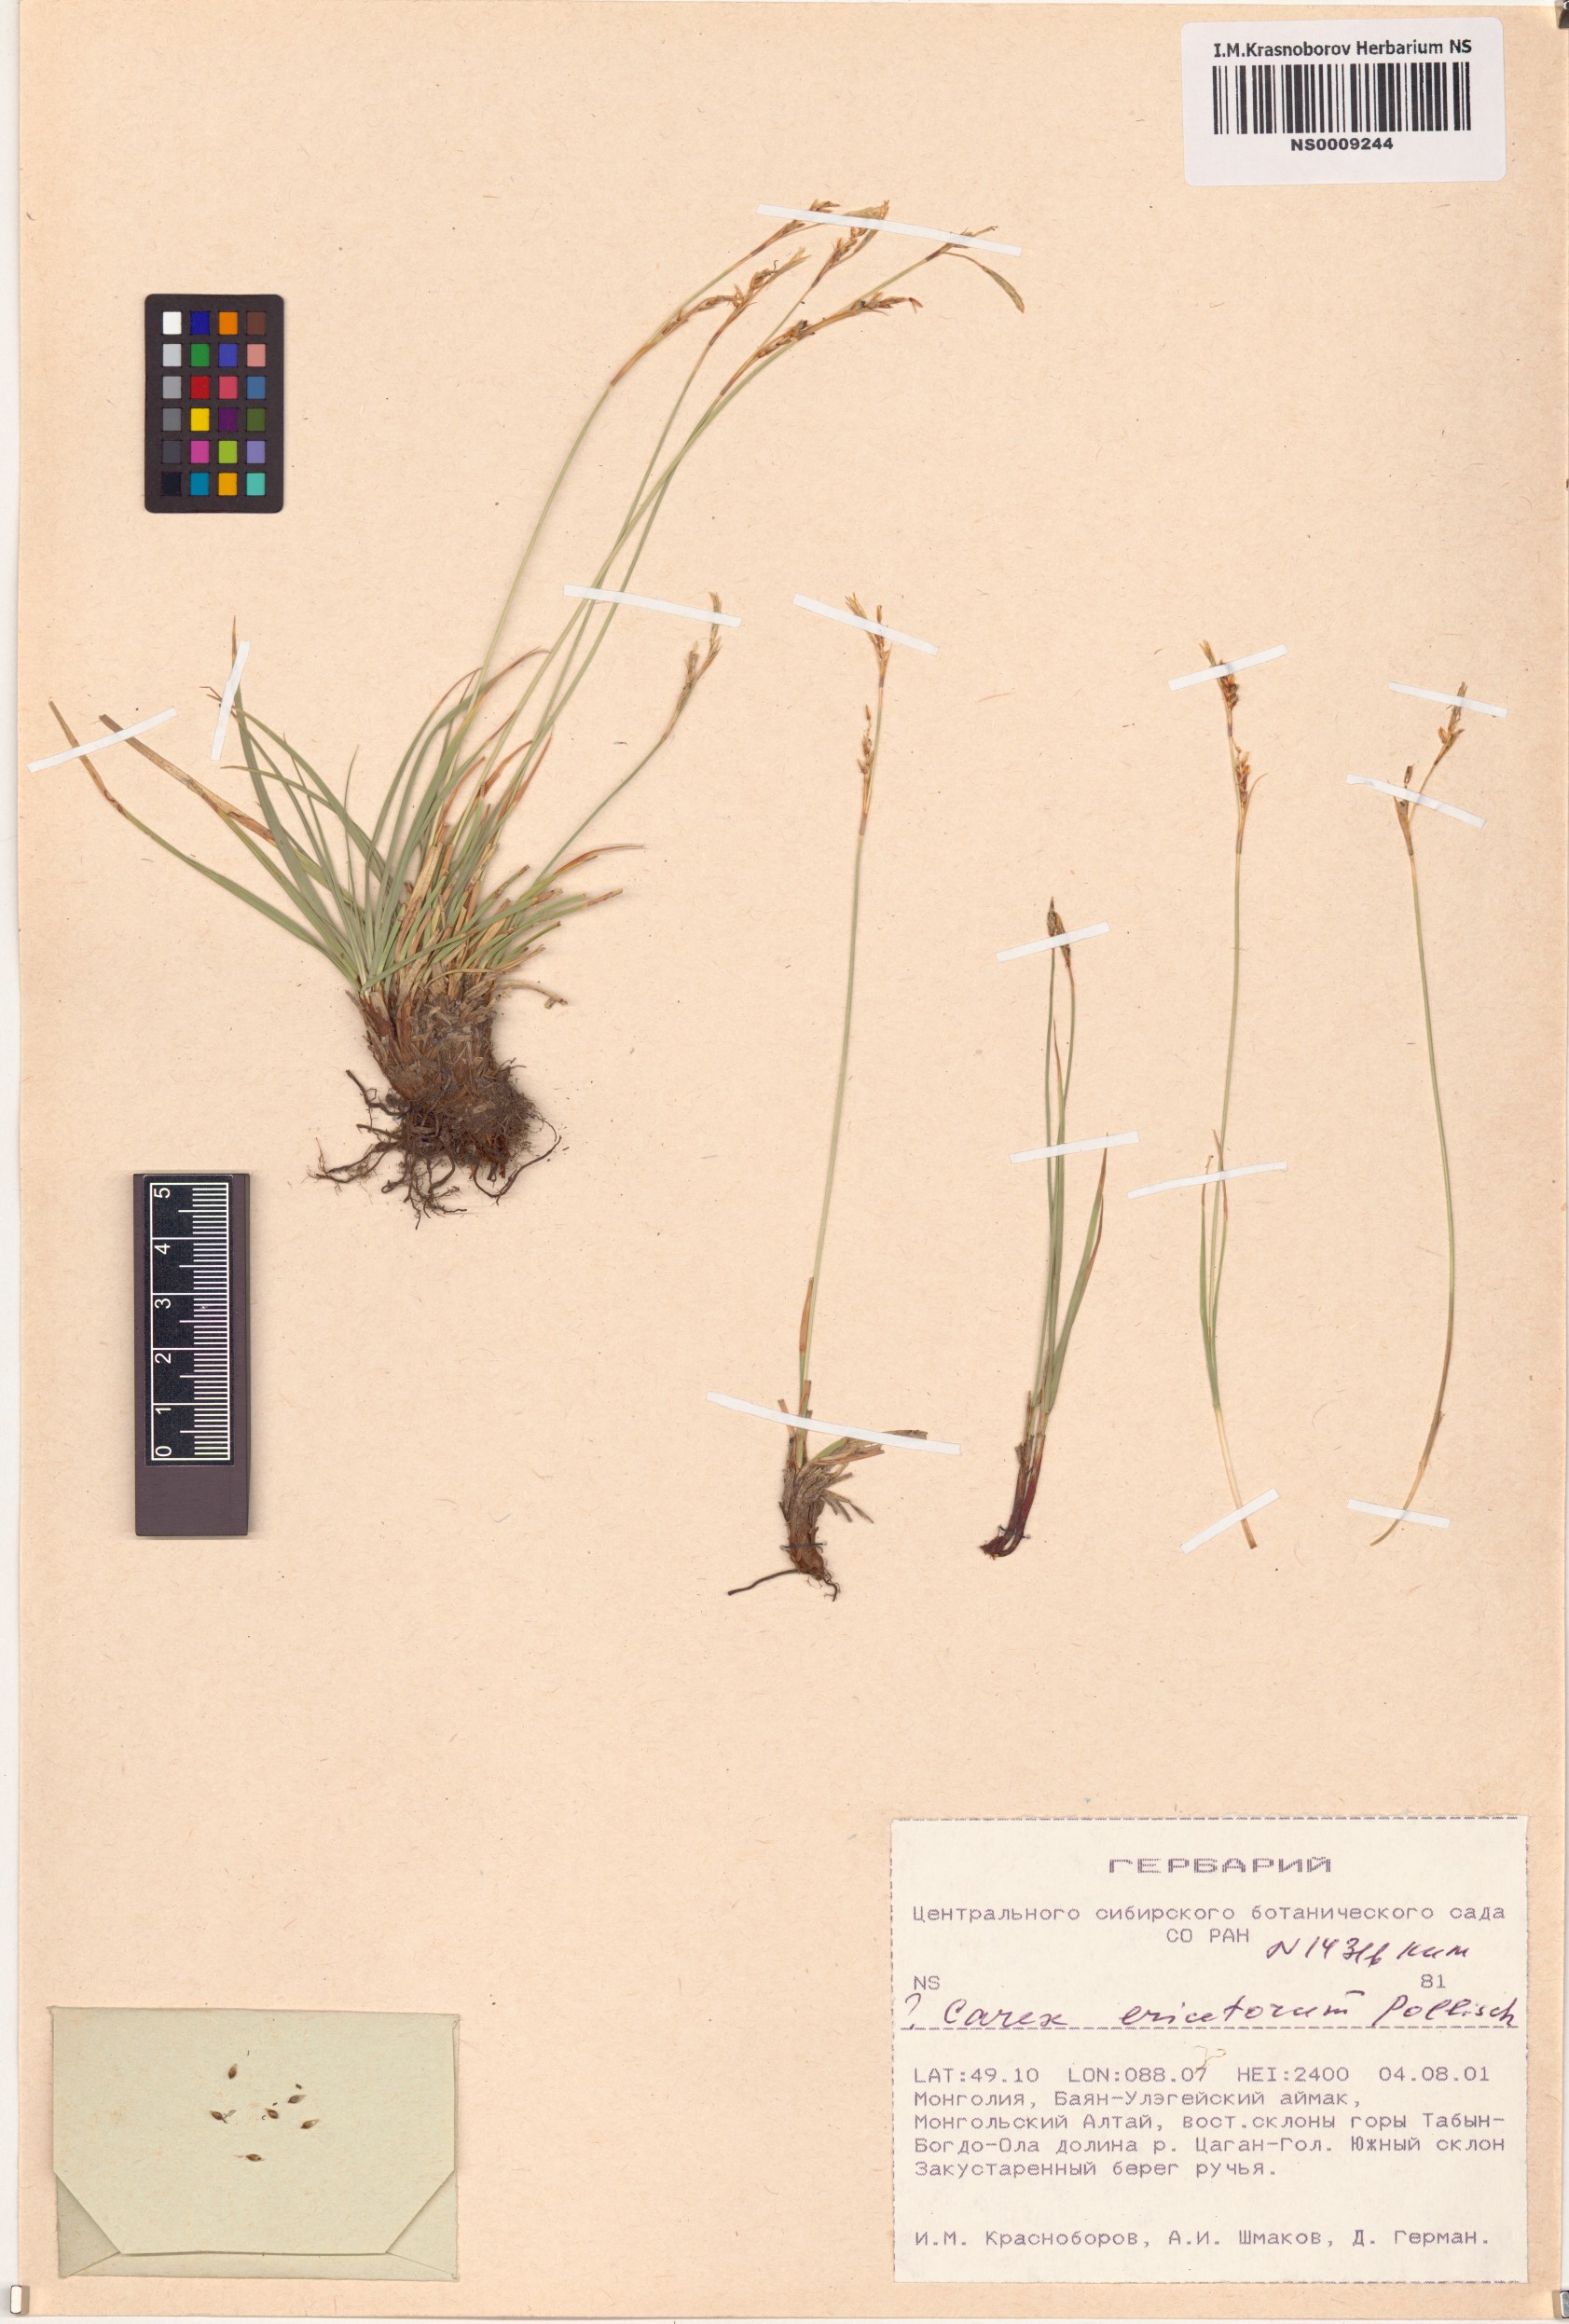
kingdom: Plantae
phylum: Tracheophyta
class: Liliopsida
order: Poales
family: Cyperaceae
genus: Carex
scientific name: Carex ericetorum
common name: Rare spring-sedge
